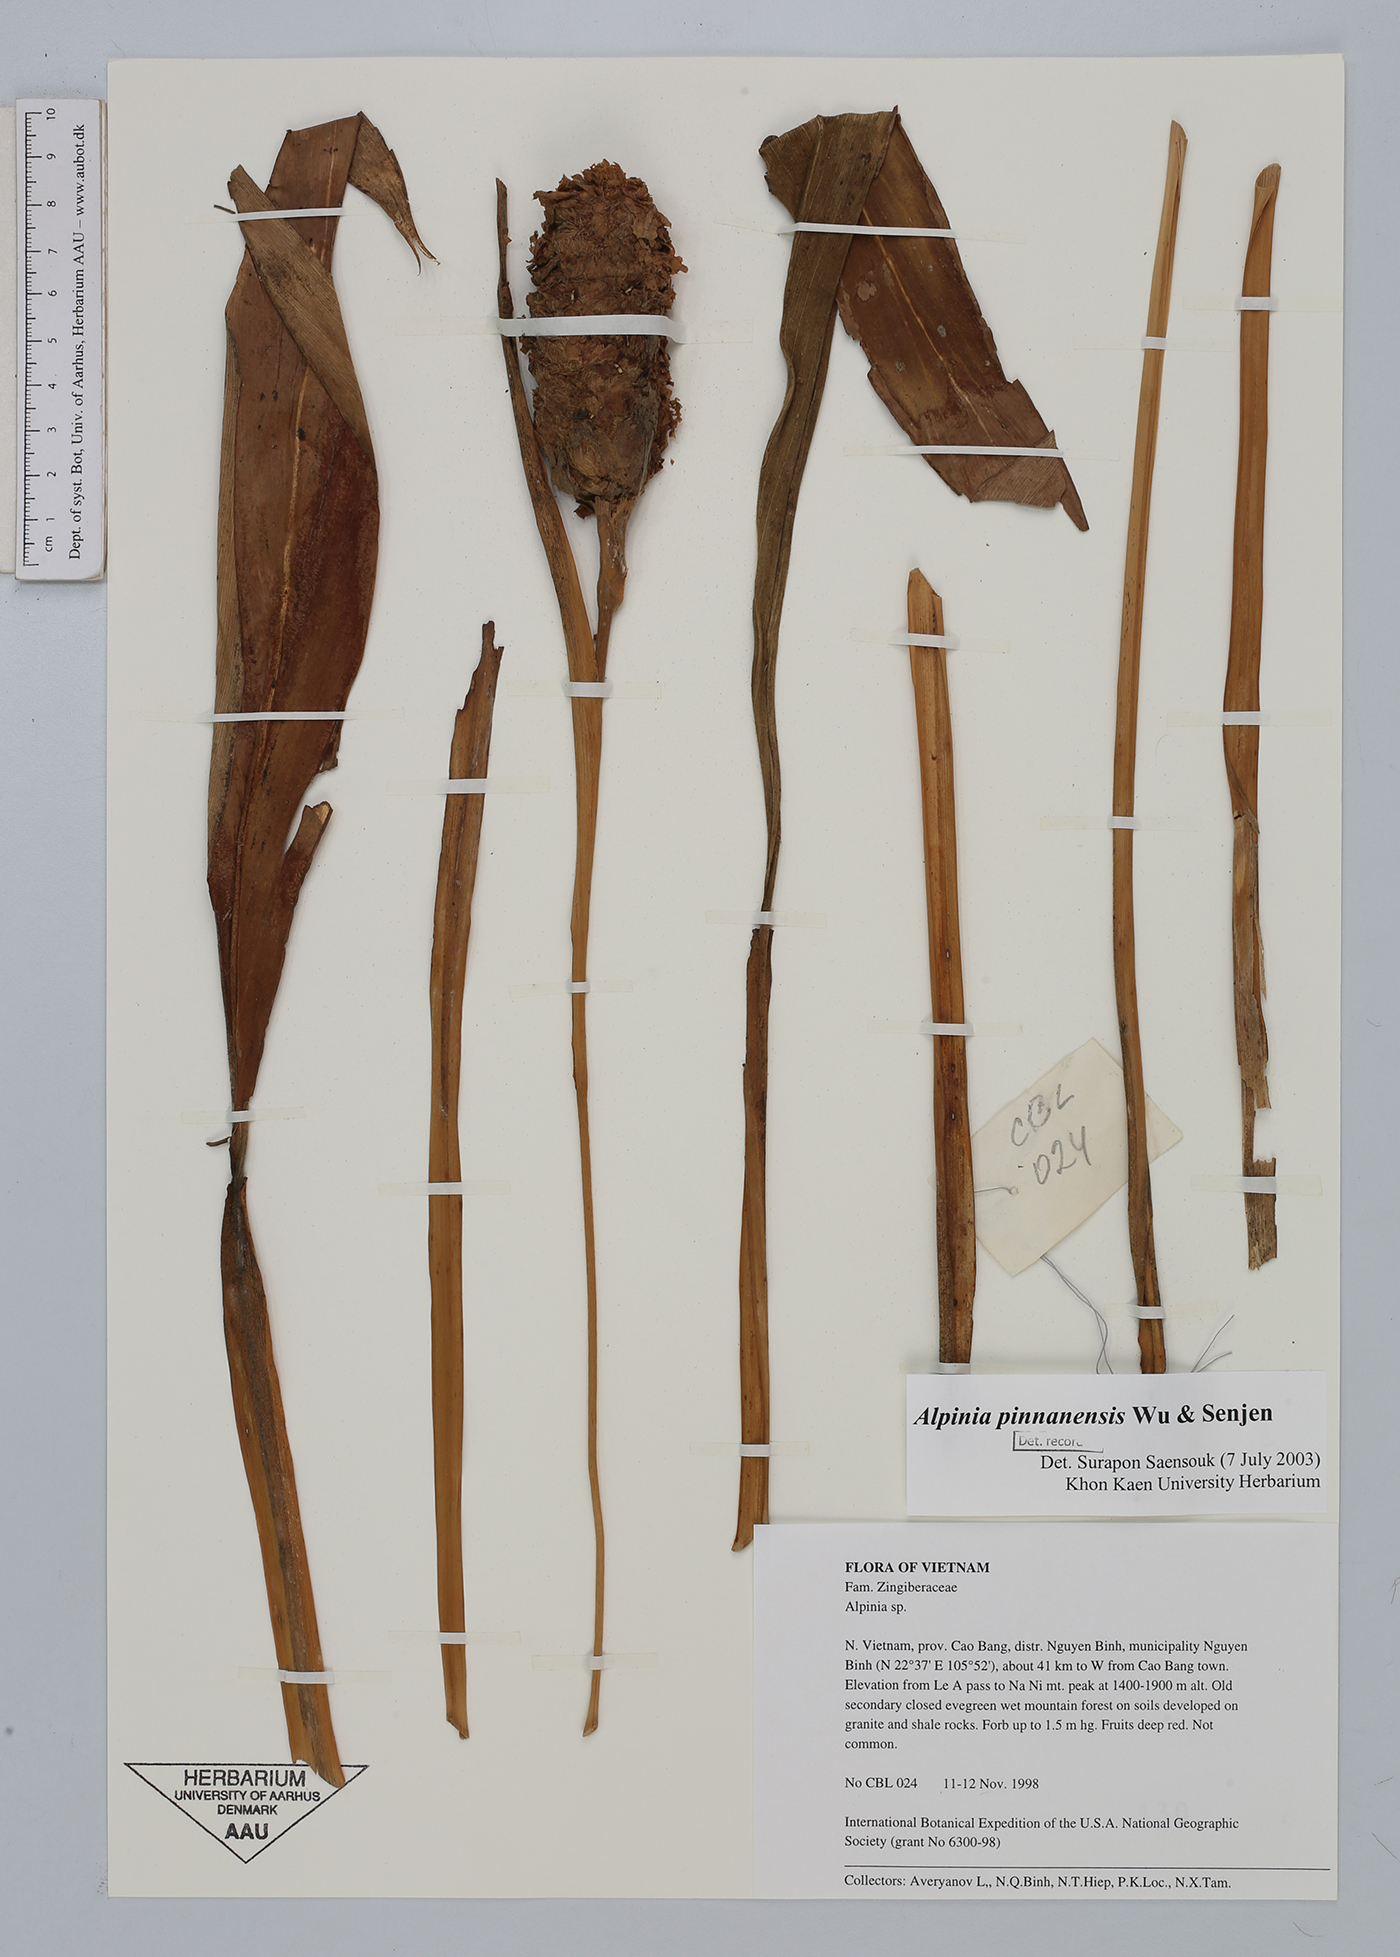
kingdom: Plantae
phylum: Tracheophyta
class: Liliopsida
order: Zingiberales
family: Zingiberaceae
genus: Alpinia
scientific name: Alpinia pinnanensis
